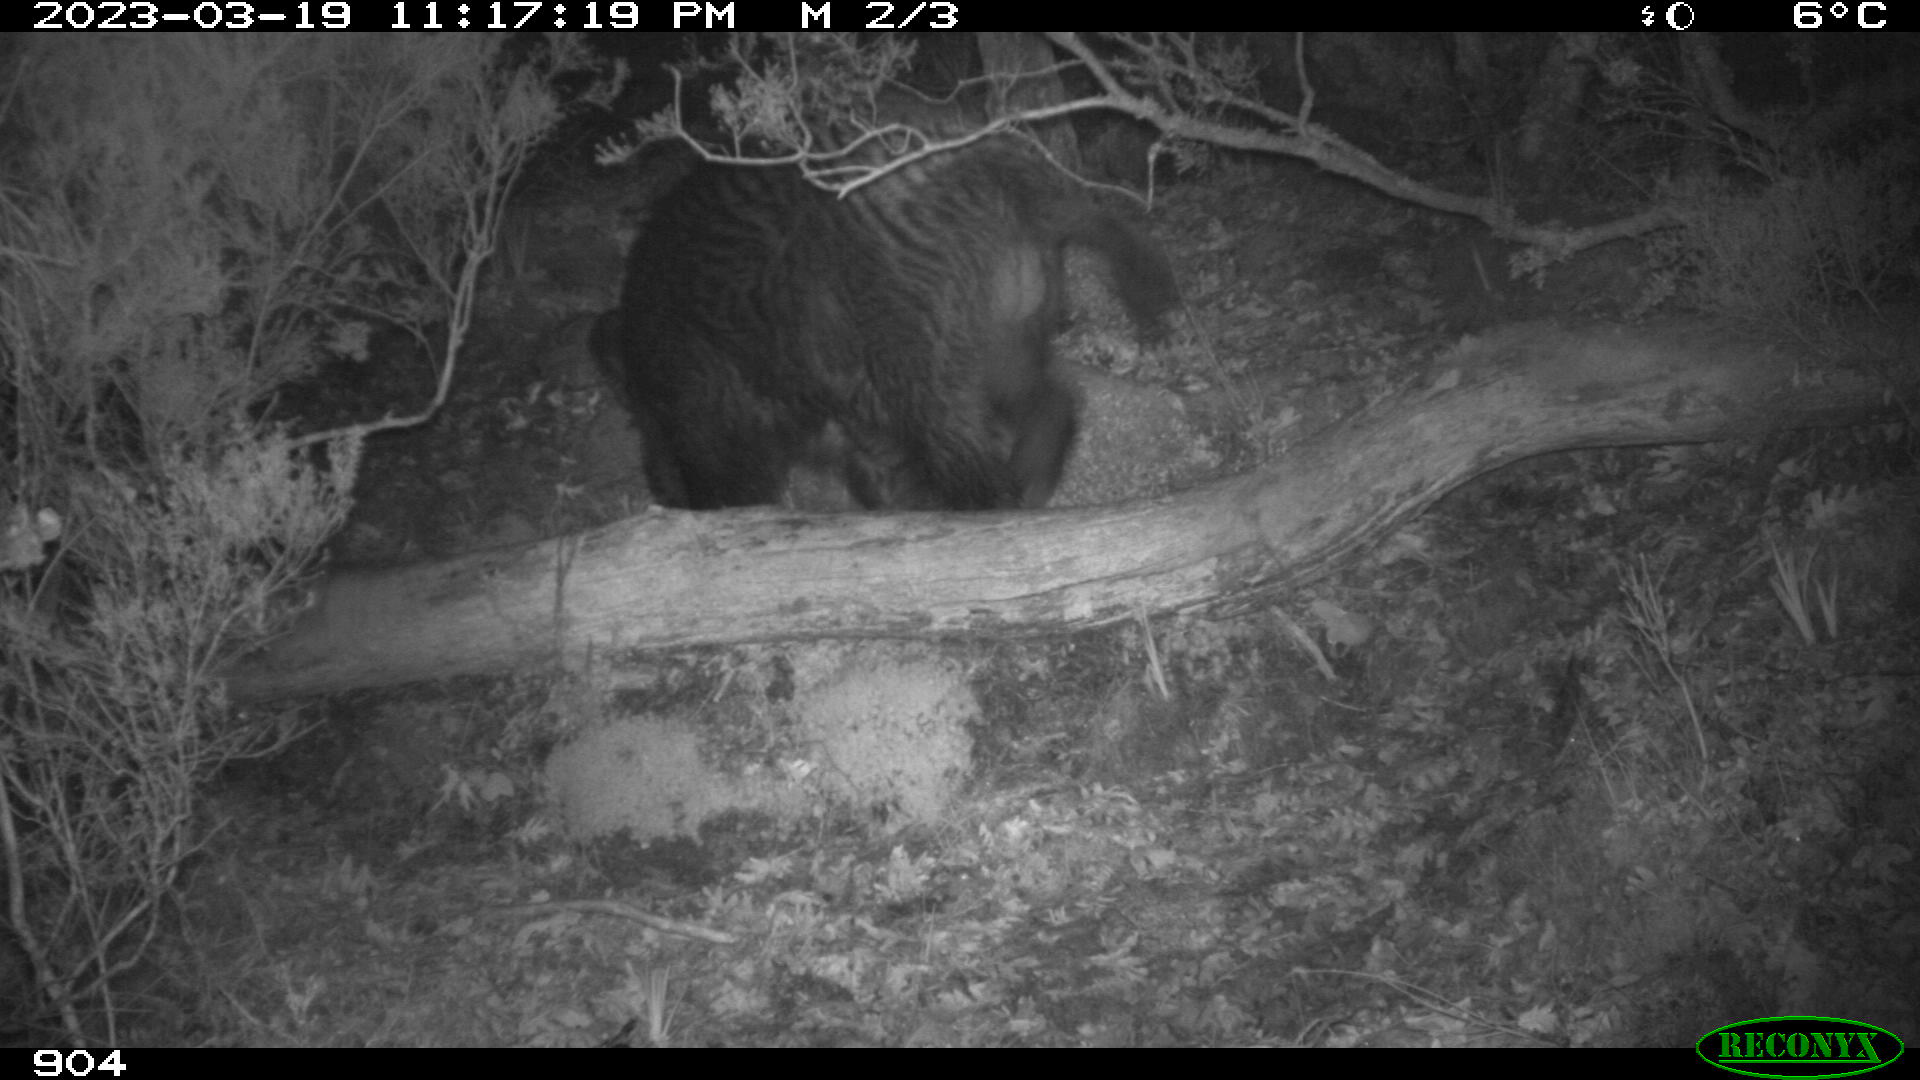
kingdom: Animalia
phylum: Chordata
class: Mammalia
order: Artiodactyla
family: Suidae
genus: Sus
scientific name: Sus scrofa
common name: Wild boar
